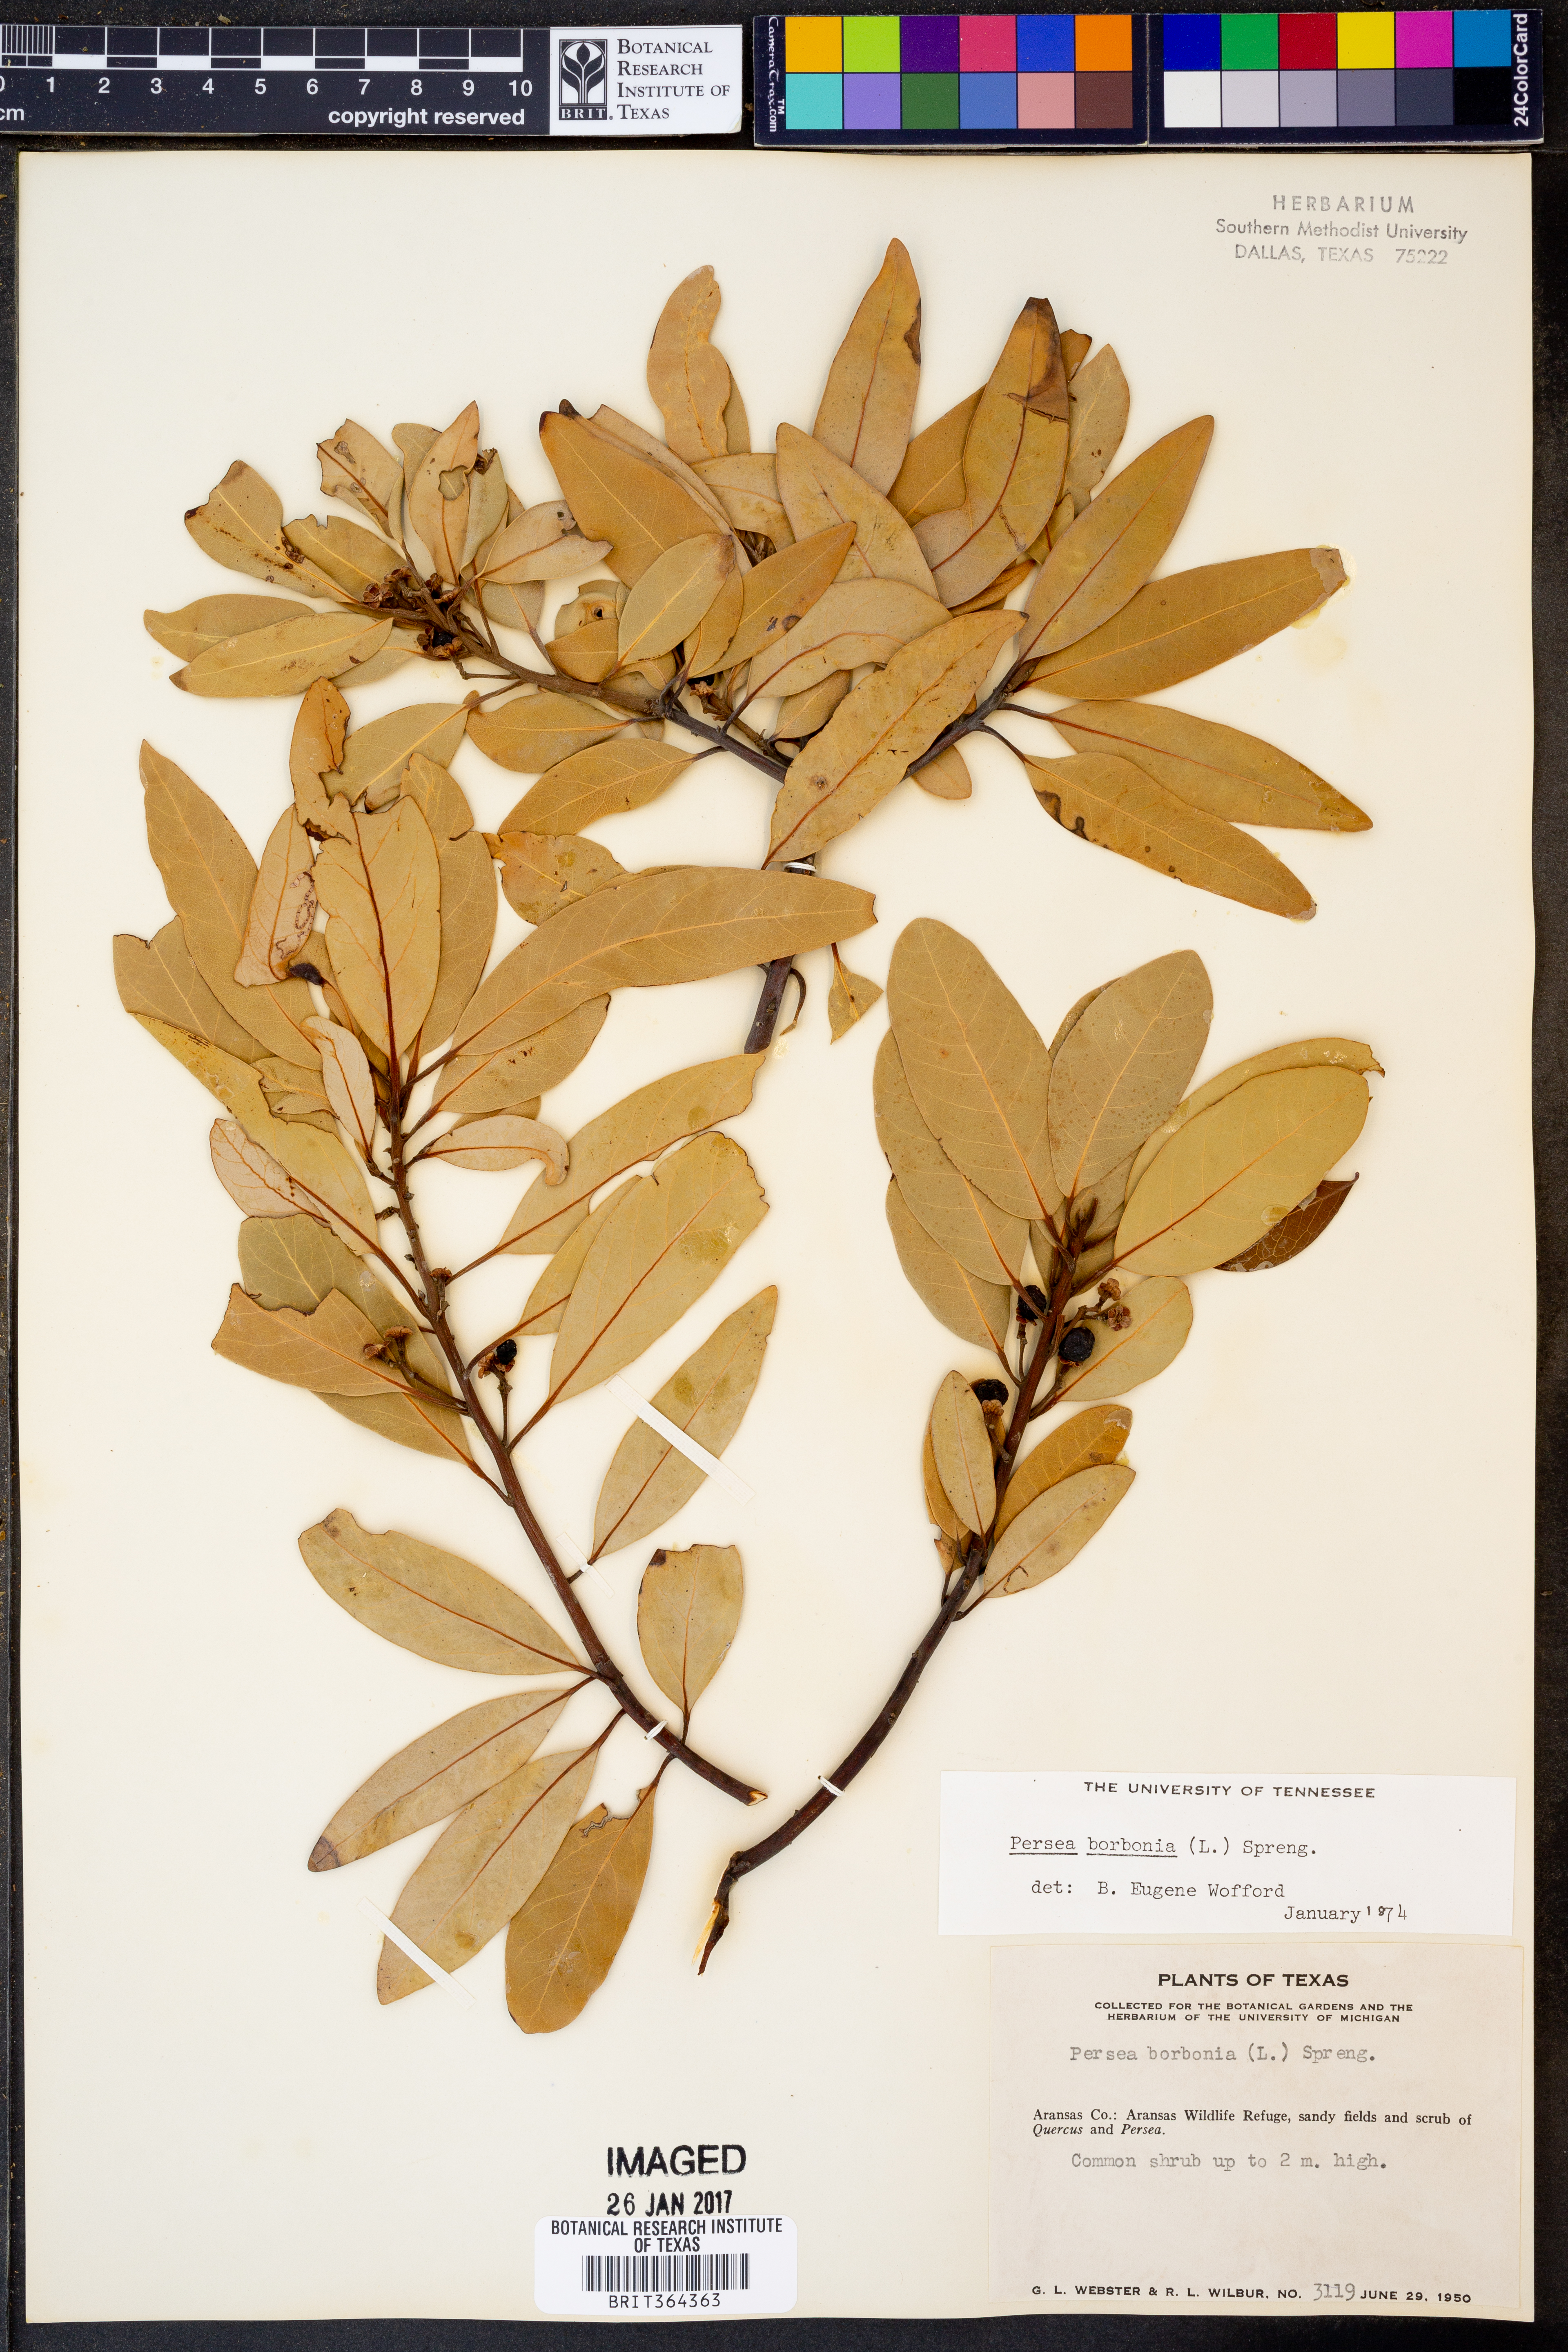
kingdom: Plantae
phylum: Tracheophyta
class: Magnoliopsida
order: Laurales
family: Lauraceae
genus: Persea
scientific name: Persea borbonia
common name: Redbay
